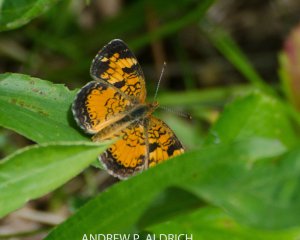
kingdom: Animalia
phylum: Arthropoda
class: Insecta
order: Lepidoptera
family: Nymphalidae
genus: Phyciodes
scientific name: Phyciodes
